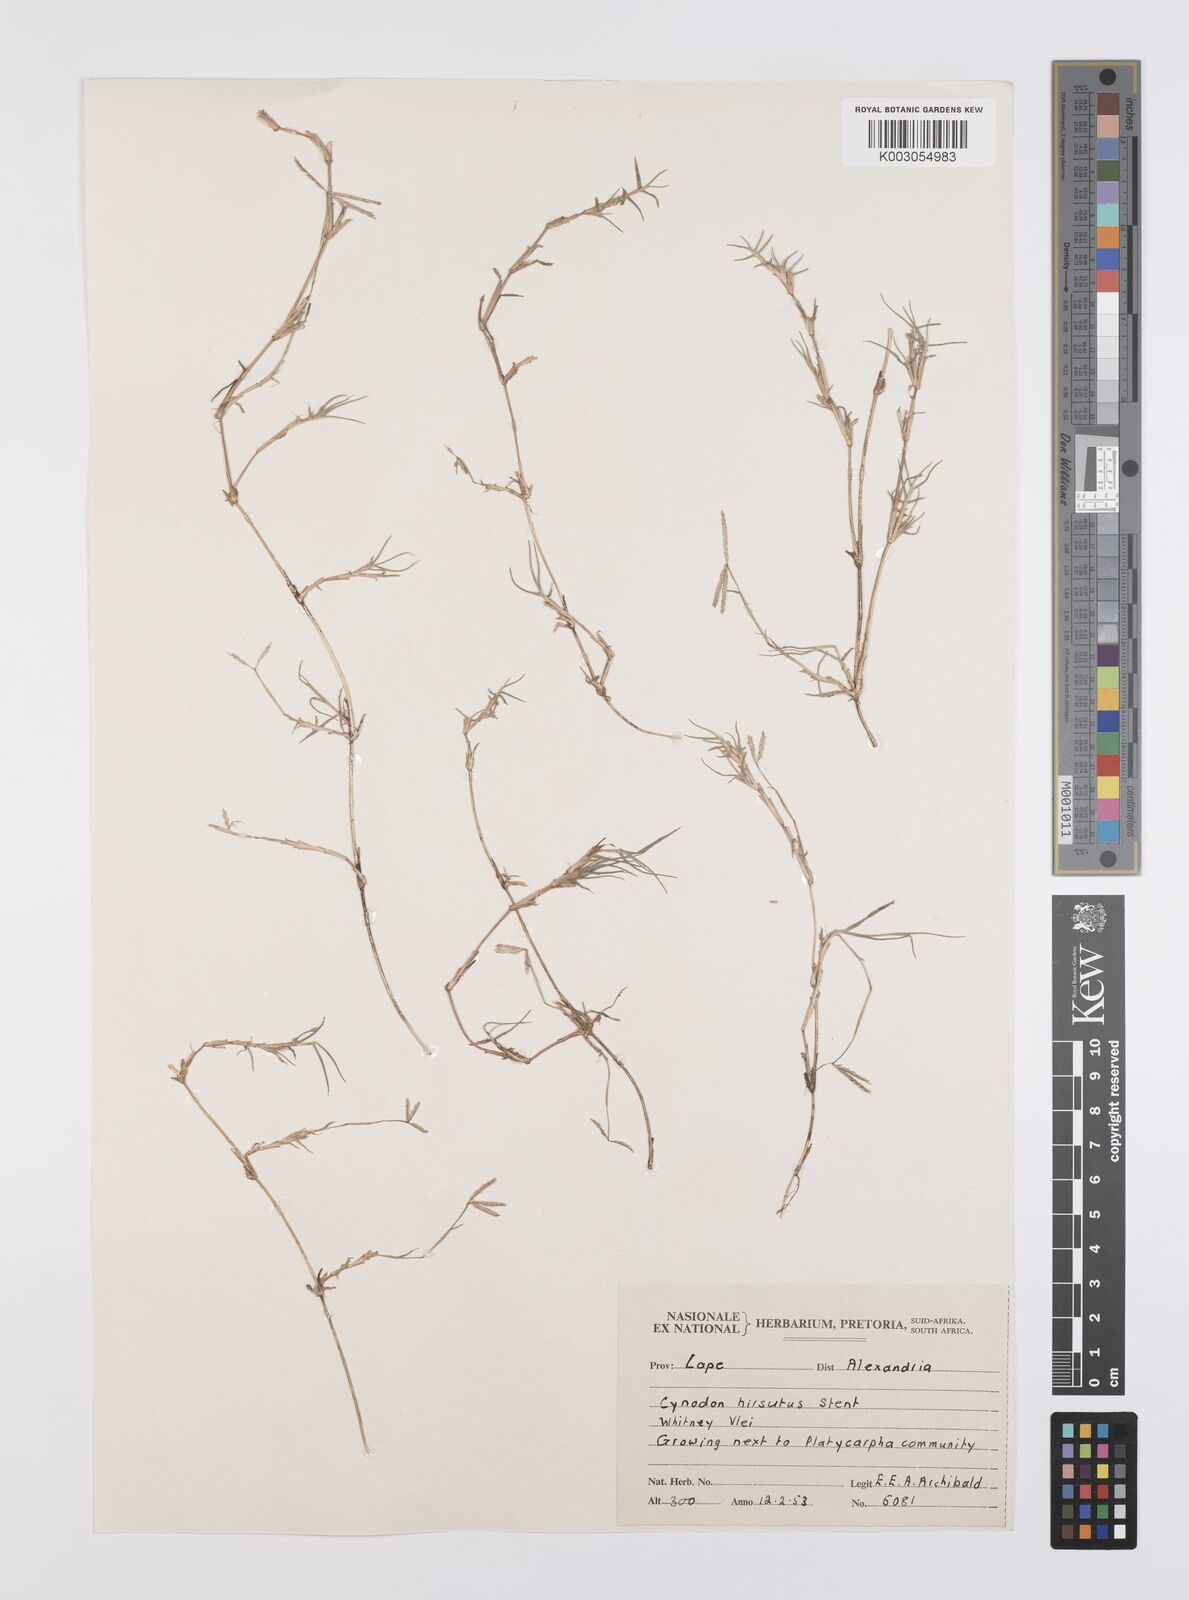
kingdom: Plantae
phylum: Tracheophyta
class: Liliopsida
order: Poales
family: Poaceae
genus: Cynodon
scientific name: Cynodon incompletus
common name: African bermuda-grass
